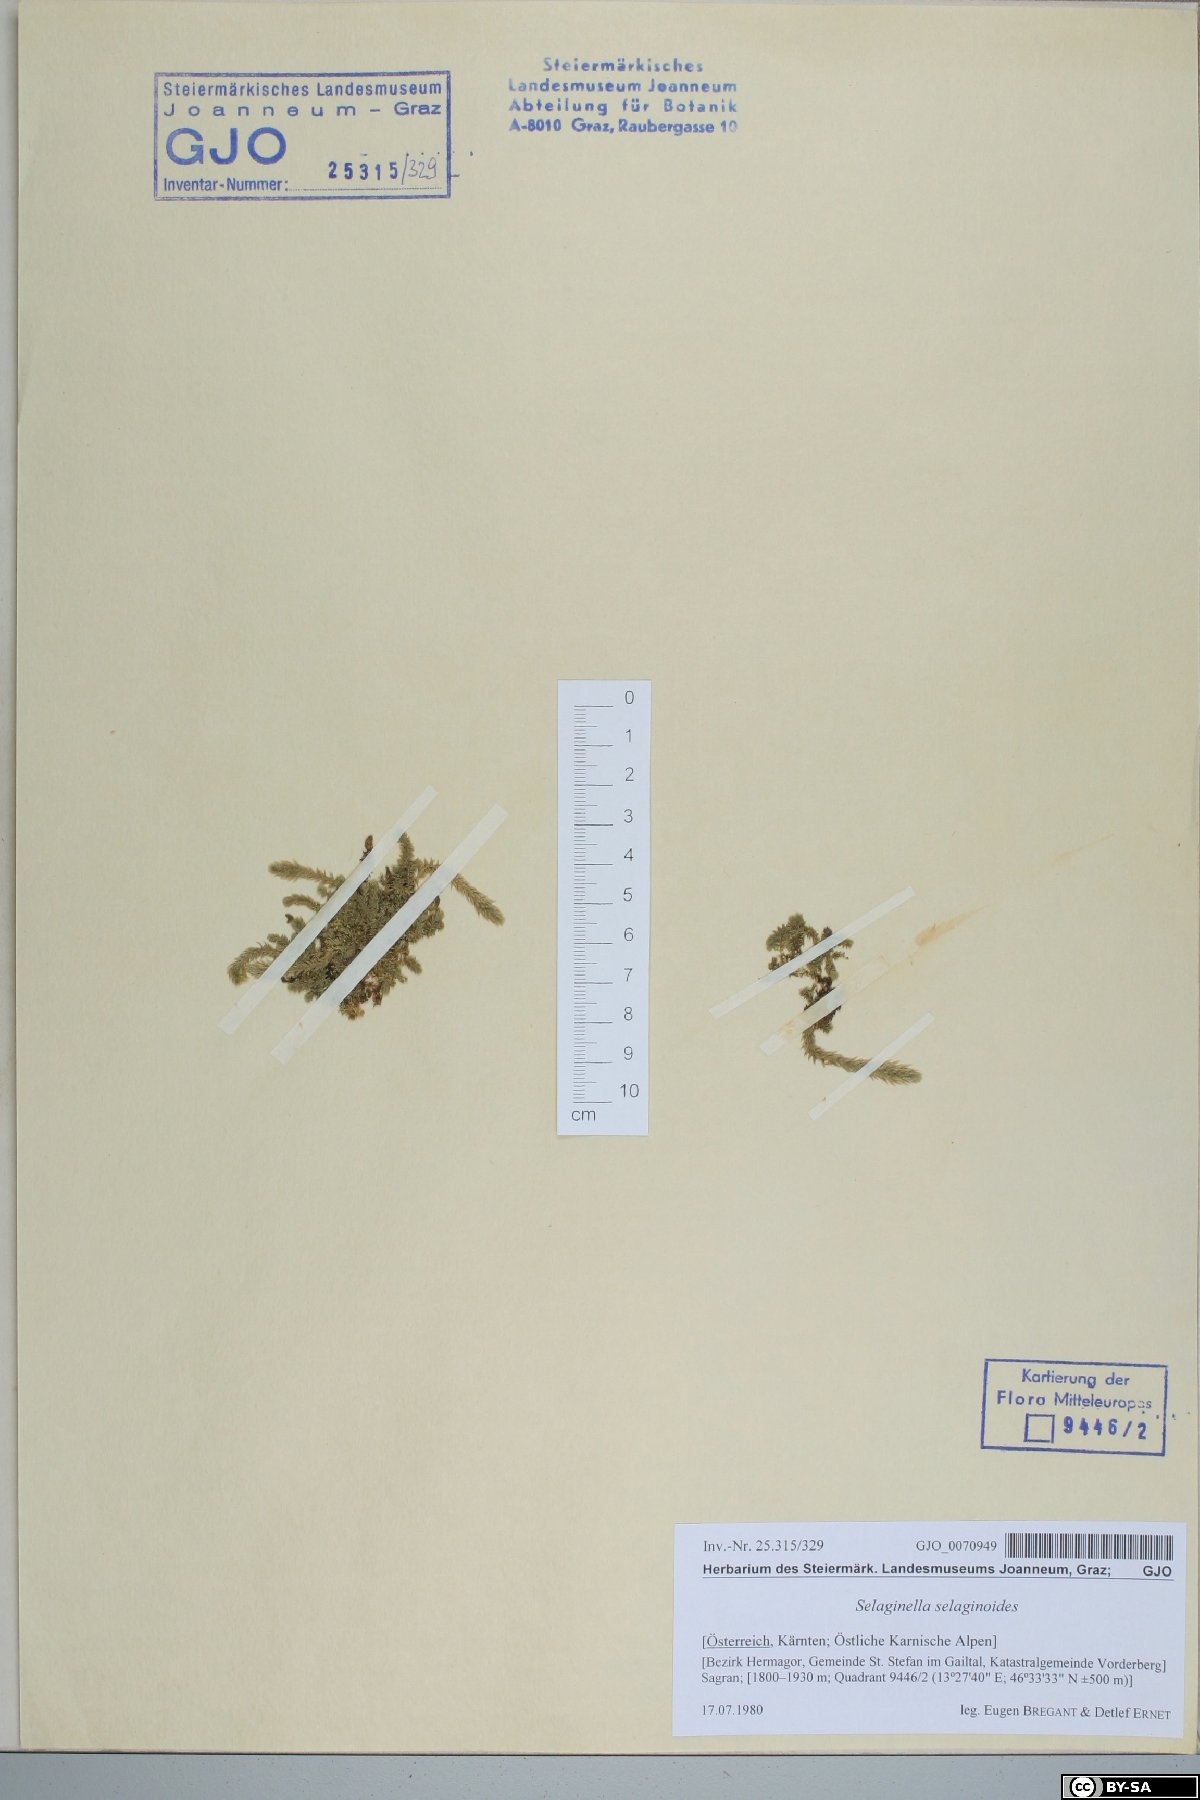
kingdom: Plantae
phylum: Tracheophyta
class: Lycopodiopsida
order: Selaginellales
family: Selaginellaceae
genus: Selaginella
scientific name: Selaginella selaginoides
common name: Prickly mountain-moss
